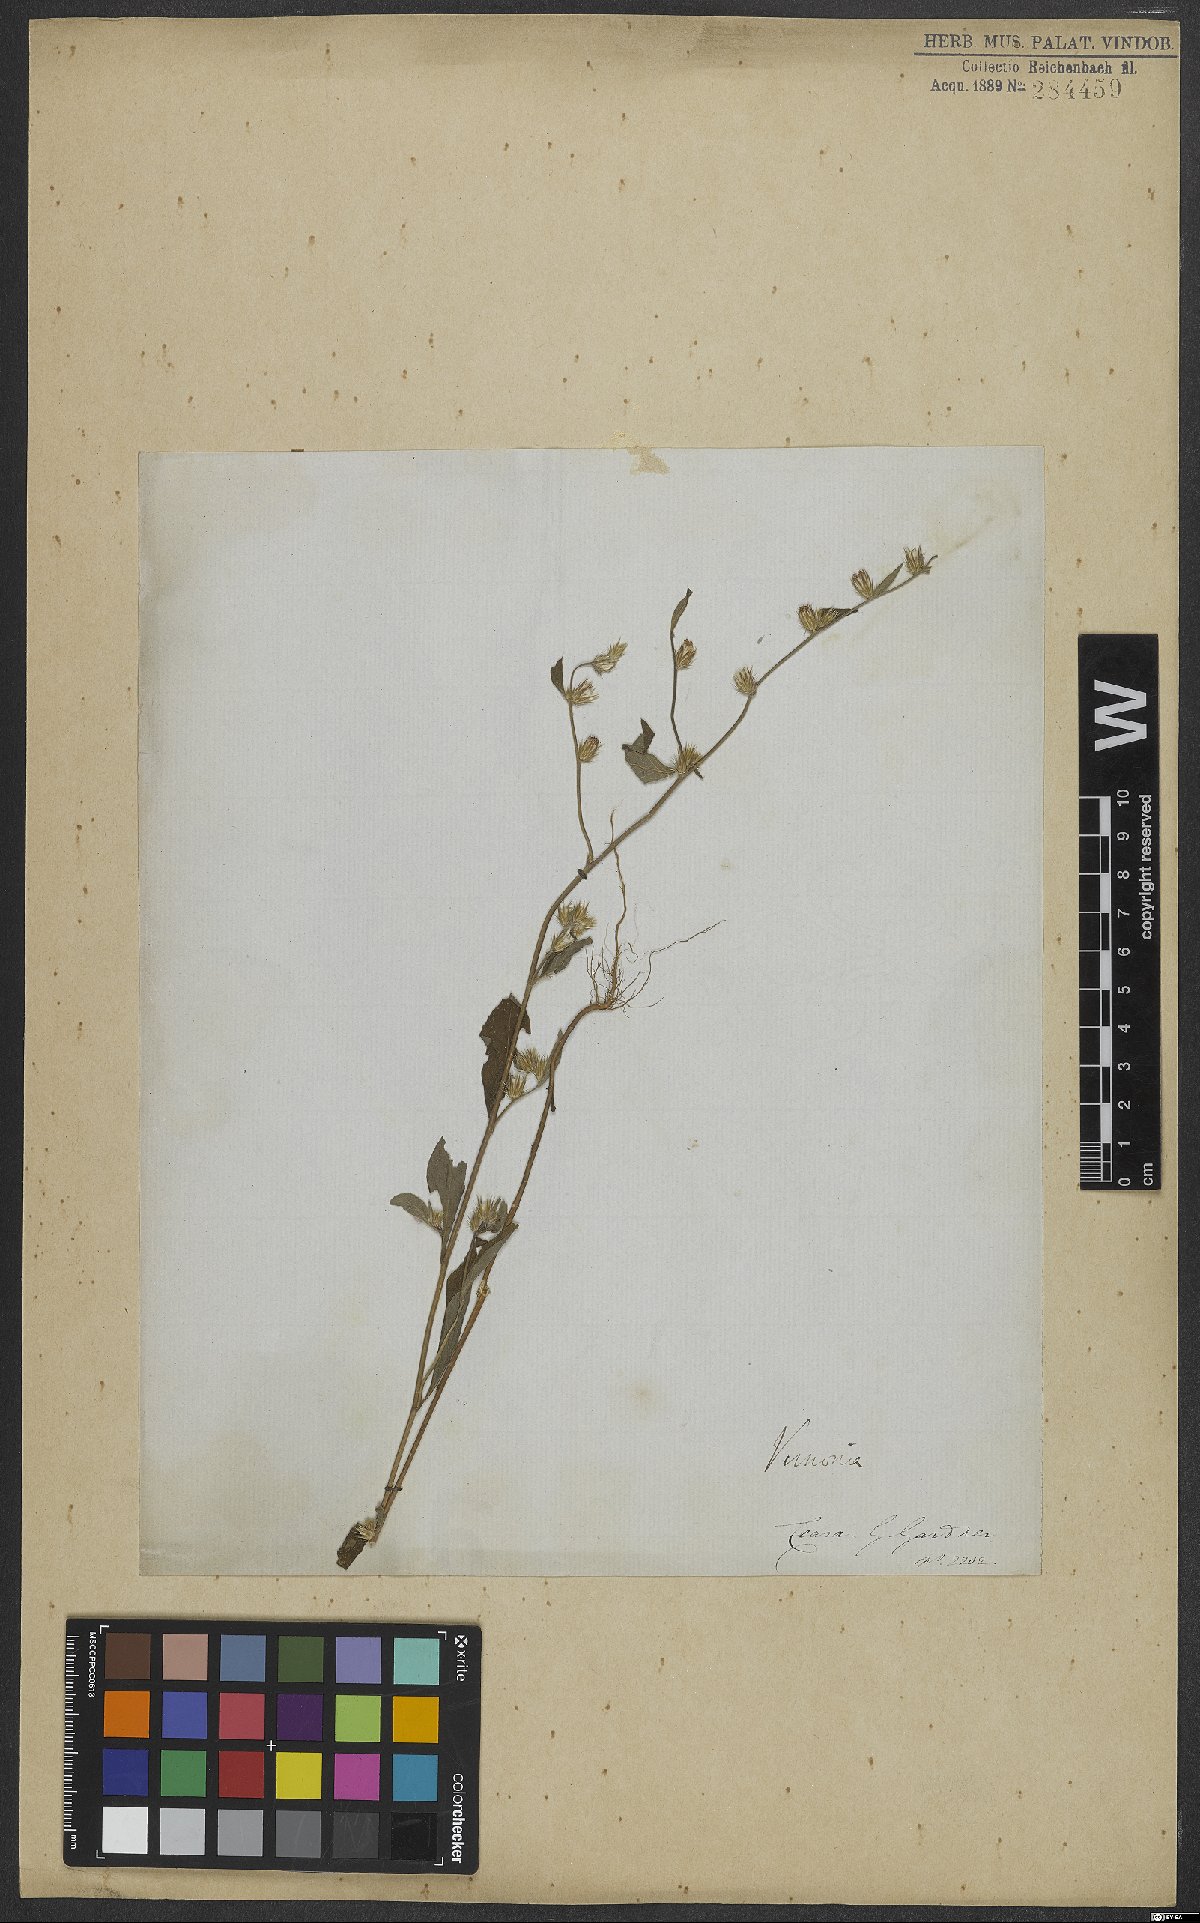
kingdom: Plantae
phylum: Tracheophyta
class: Magnoliopsida
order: Asterales
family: Asteraceae
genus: Vernonia
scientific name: Vernonia
